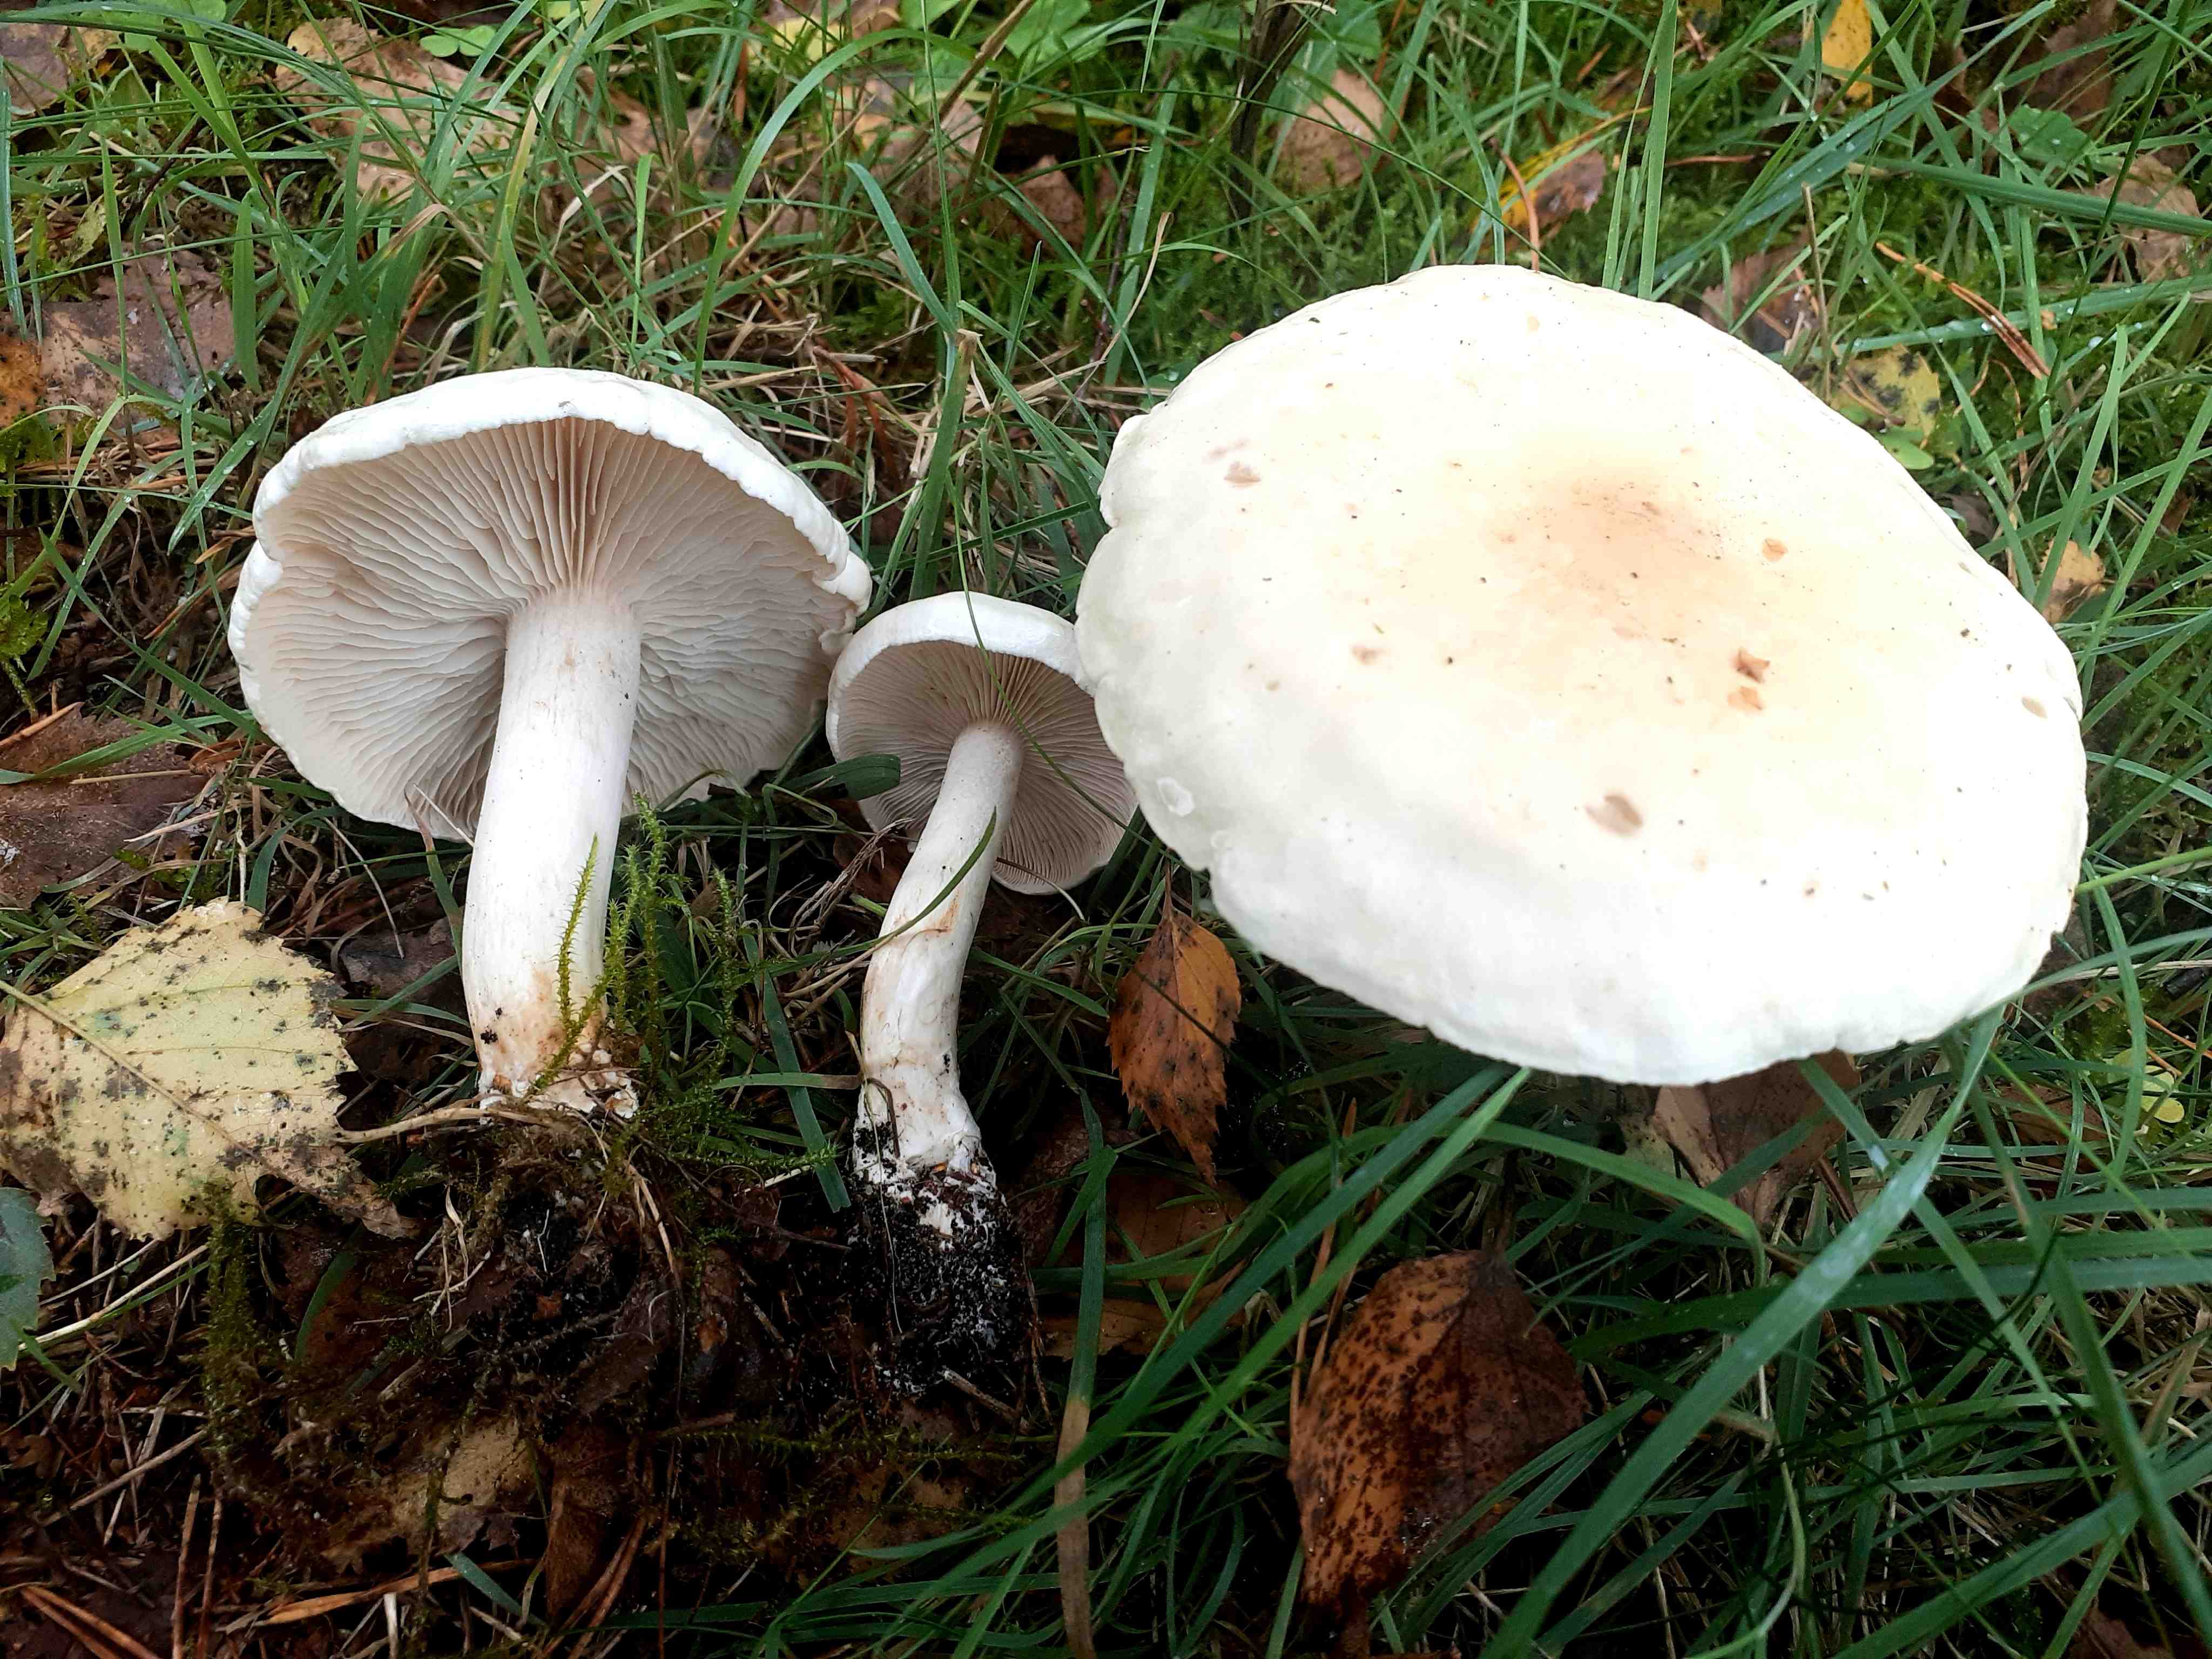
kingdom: Fungi
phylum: Basidiomycota
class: Agaricomycetes
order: Agaricales
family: Tricholomataceae
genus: Tricholoma
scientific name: Tricholoma stiparophyllum
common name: hvid ridderhat
